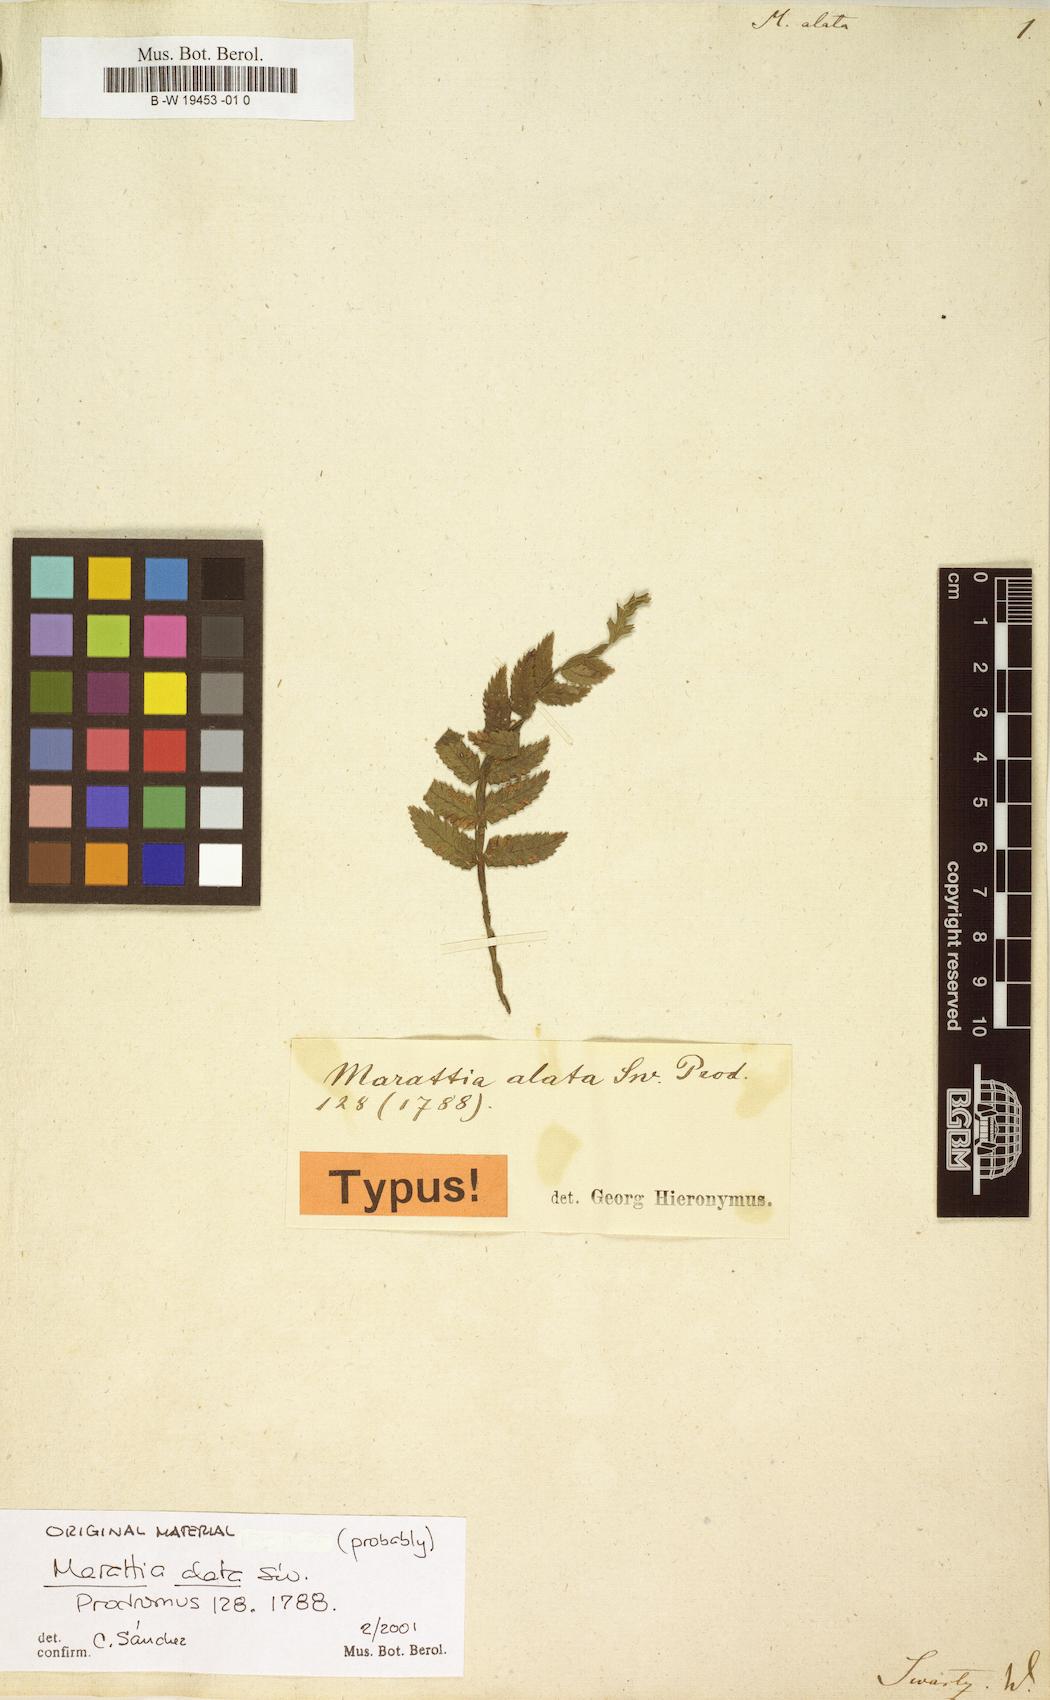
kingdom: Plantae
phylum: Tracheophyta
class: Polypodiopsida
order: Marattiales
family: Marattiaceae
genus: Marattia
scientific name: Marattia alata
